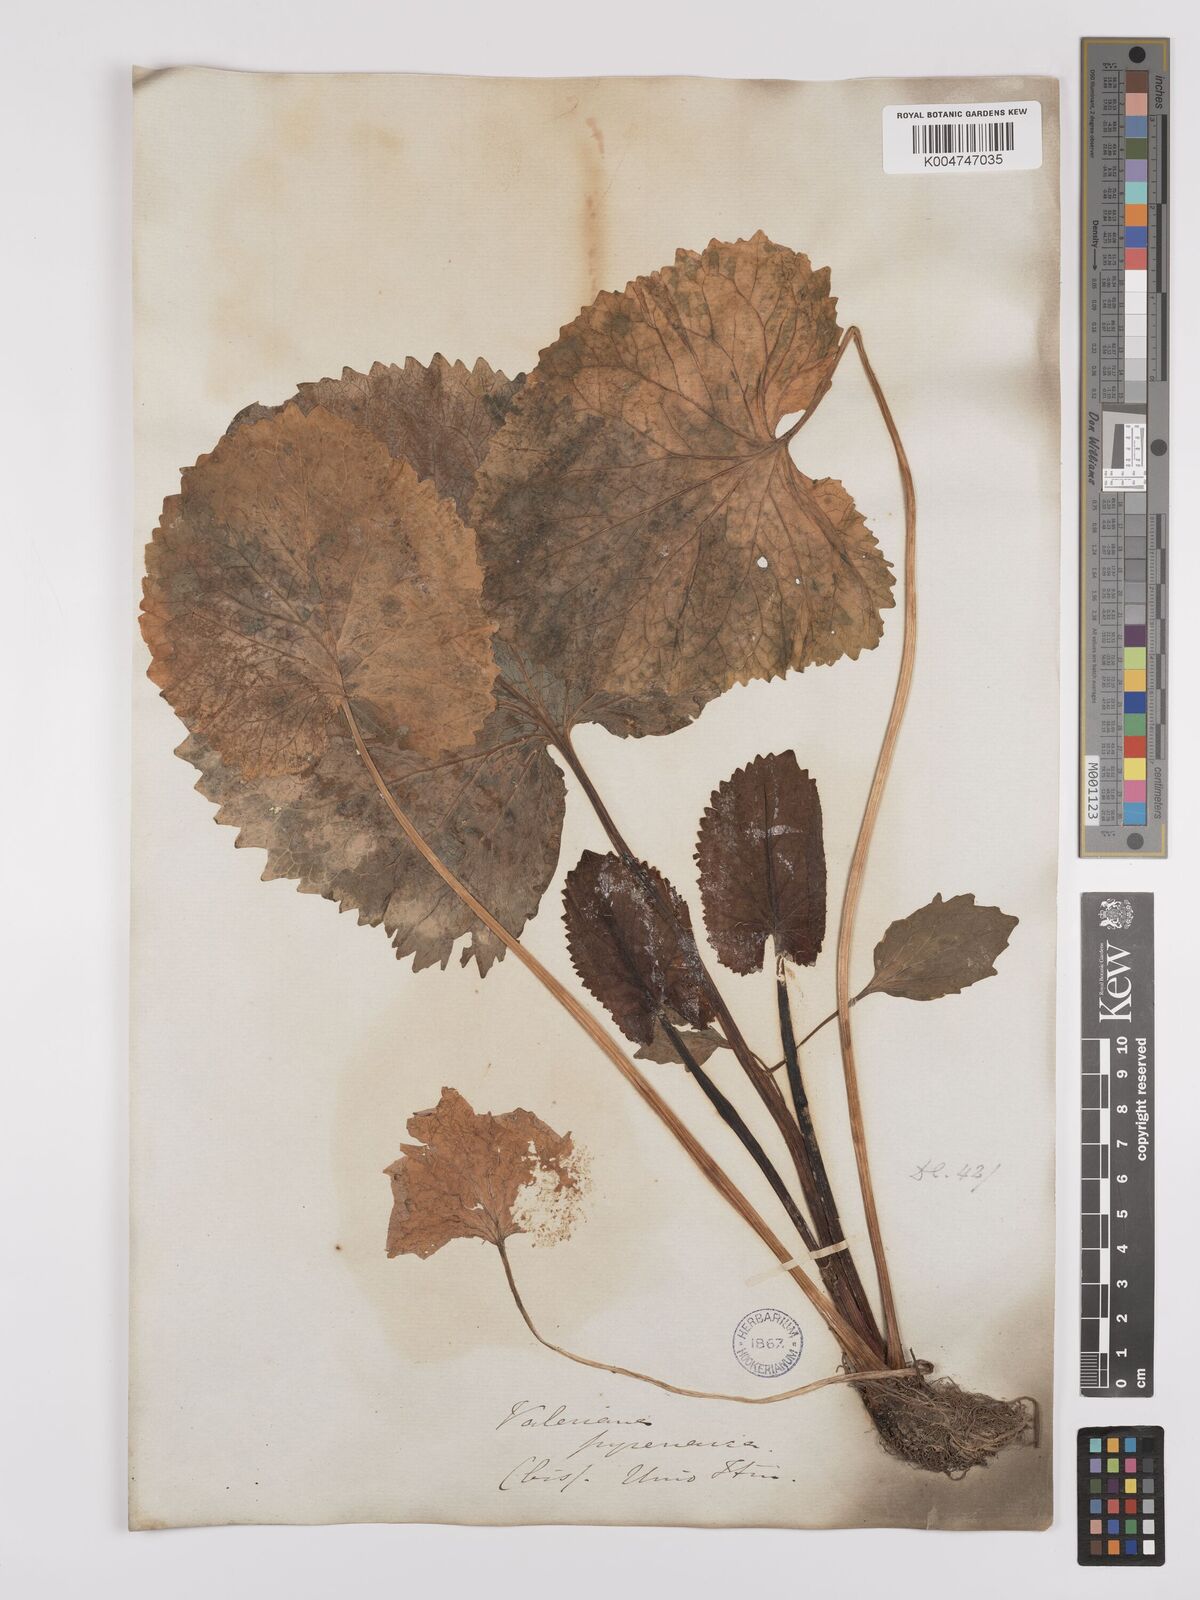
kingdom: Plantae
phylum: Tracheophyta
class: Magnoliopsida
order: Dipsacales
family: Caprifoliaceae
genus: Valeriana
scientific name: Valeriana pyrenaica
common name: Pyrenean valerian
